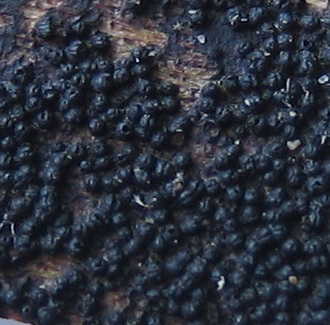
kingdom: Fungi
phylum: Ascomycota
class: Dothideomycetes
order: Pleosporales
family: Melanommataceae
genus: Melanomma
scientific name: Melanomma pulvis-pyrius
